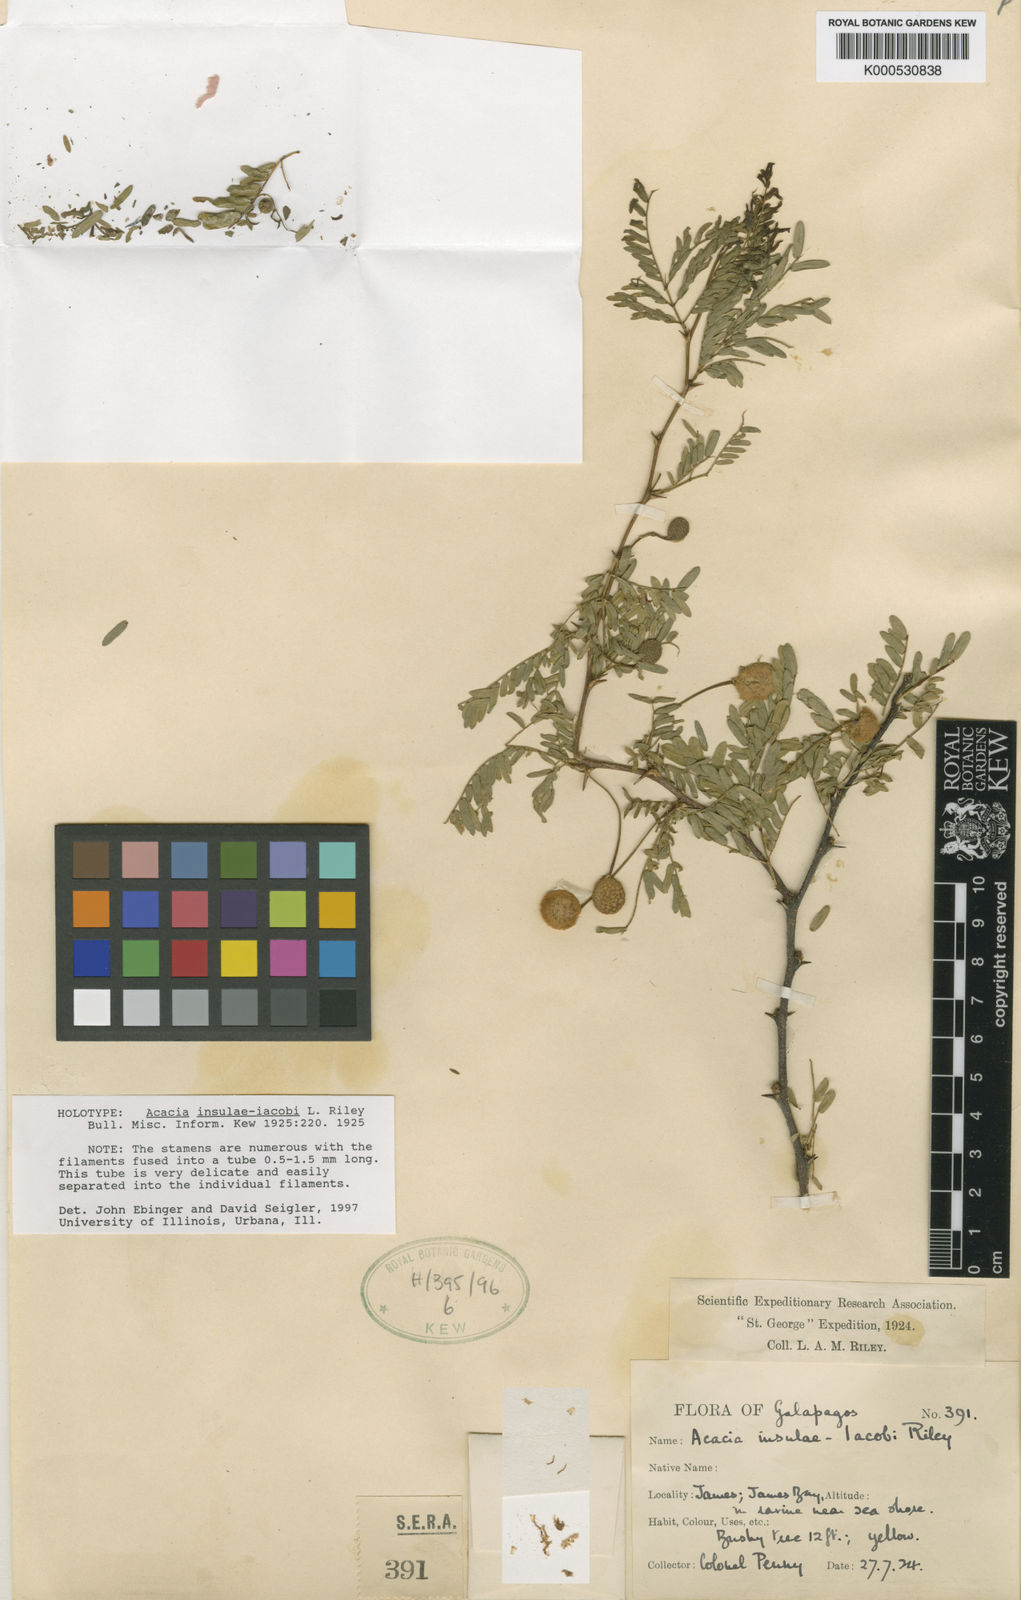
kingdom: Plantae
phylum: Tracheophyta
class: Magnoliopsida
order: Fabales
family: Fabaceae
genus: Vachellia
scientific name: Vachellia insulae-iacobi
